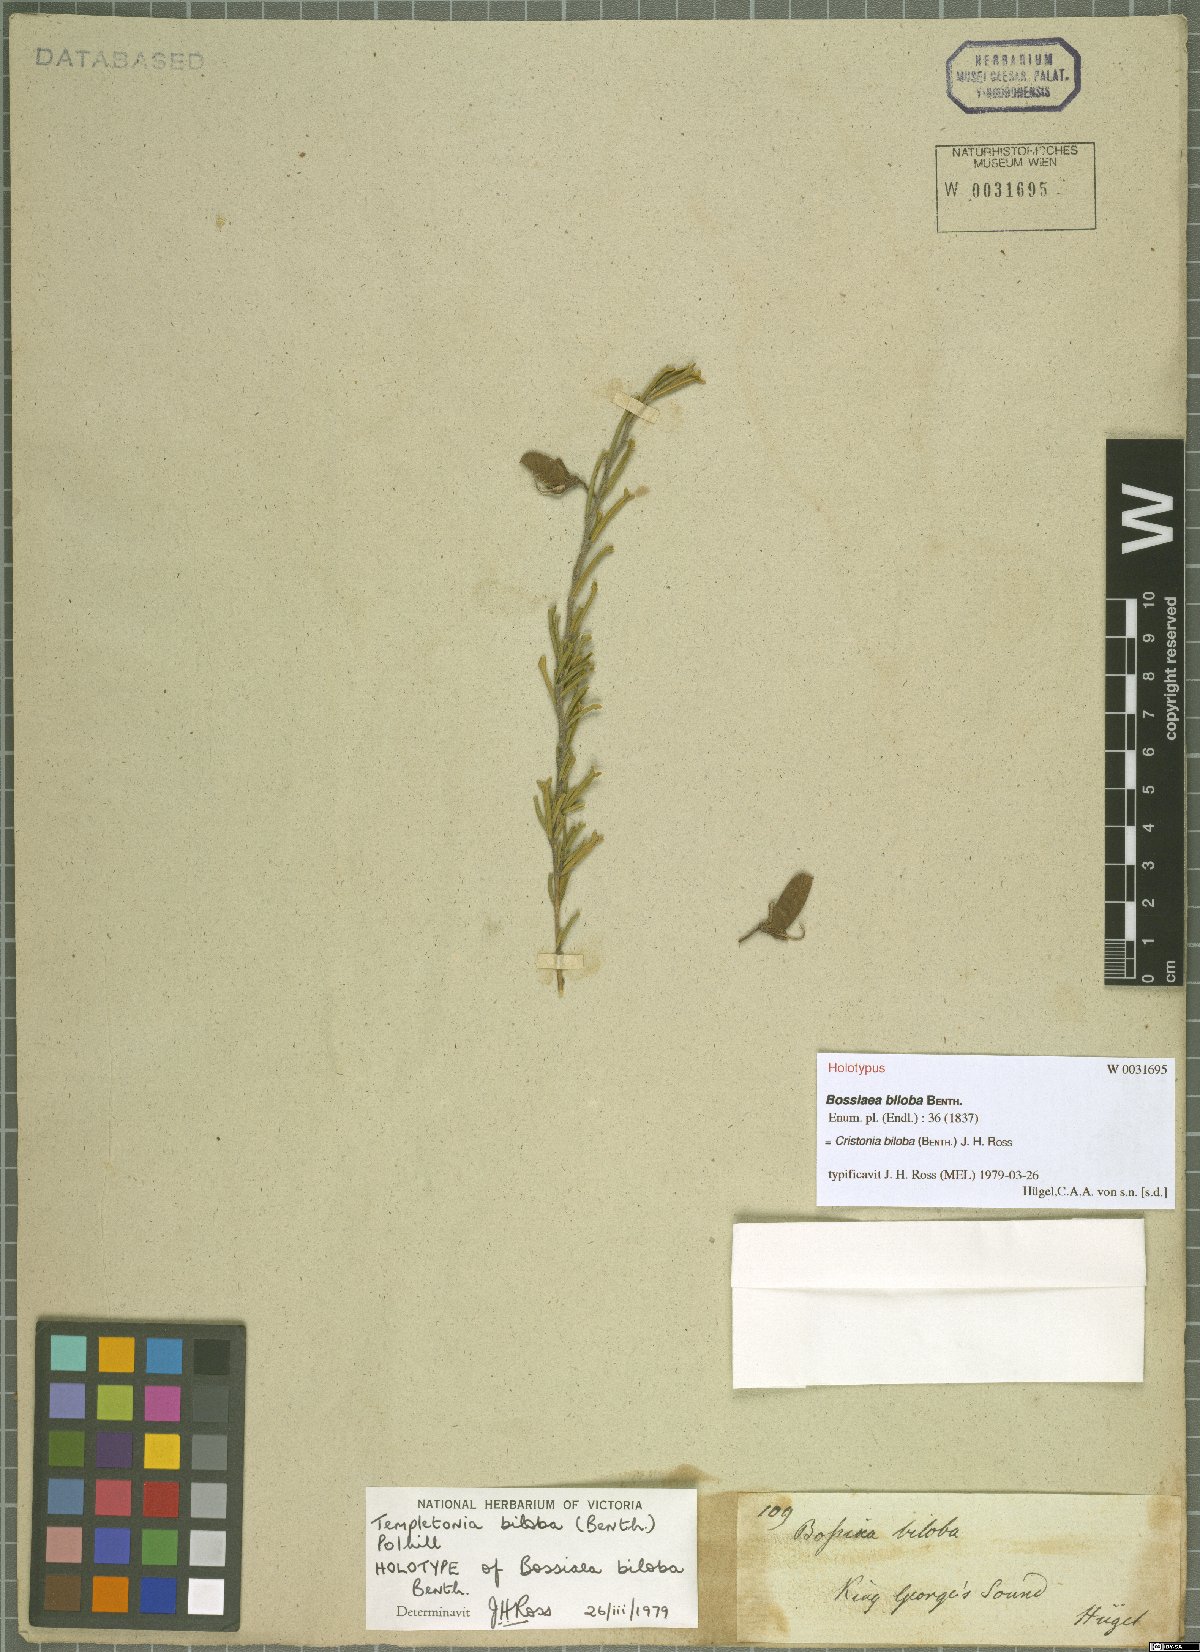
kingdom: Plantae
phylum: Tracheophyta
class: Magnoliopsida
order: Fabales
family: Fabaceae
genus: Cristonia
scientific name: Cristonia biloba
